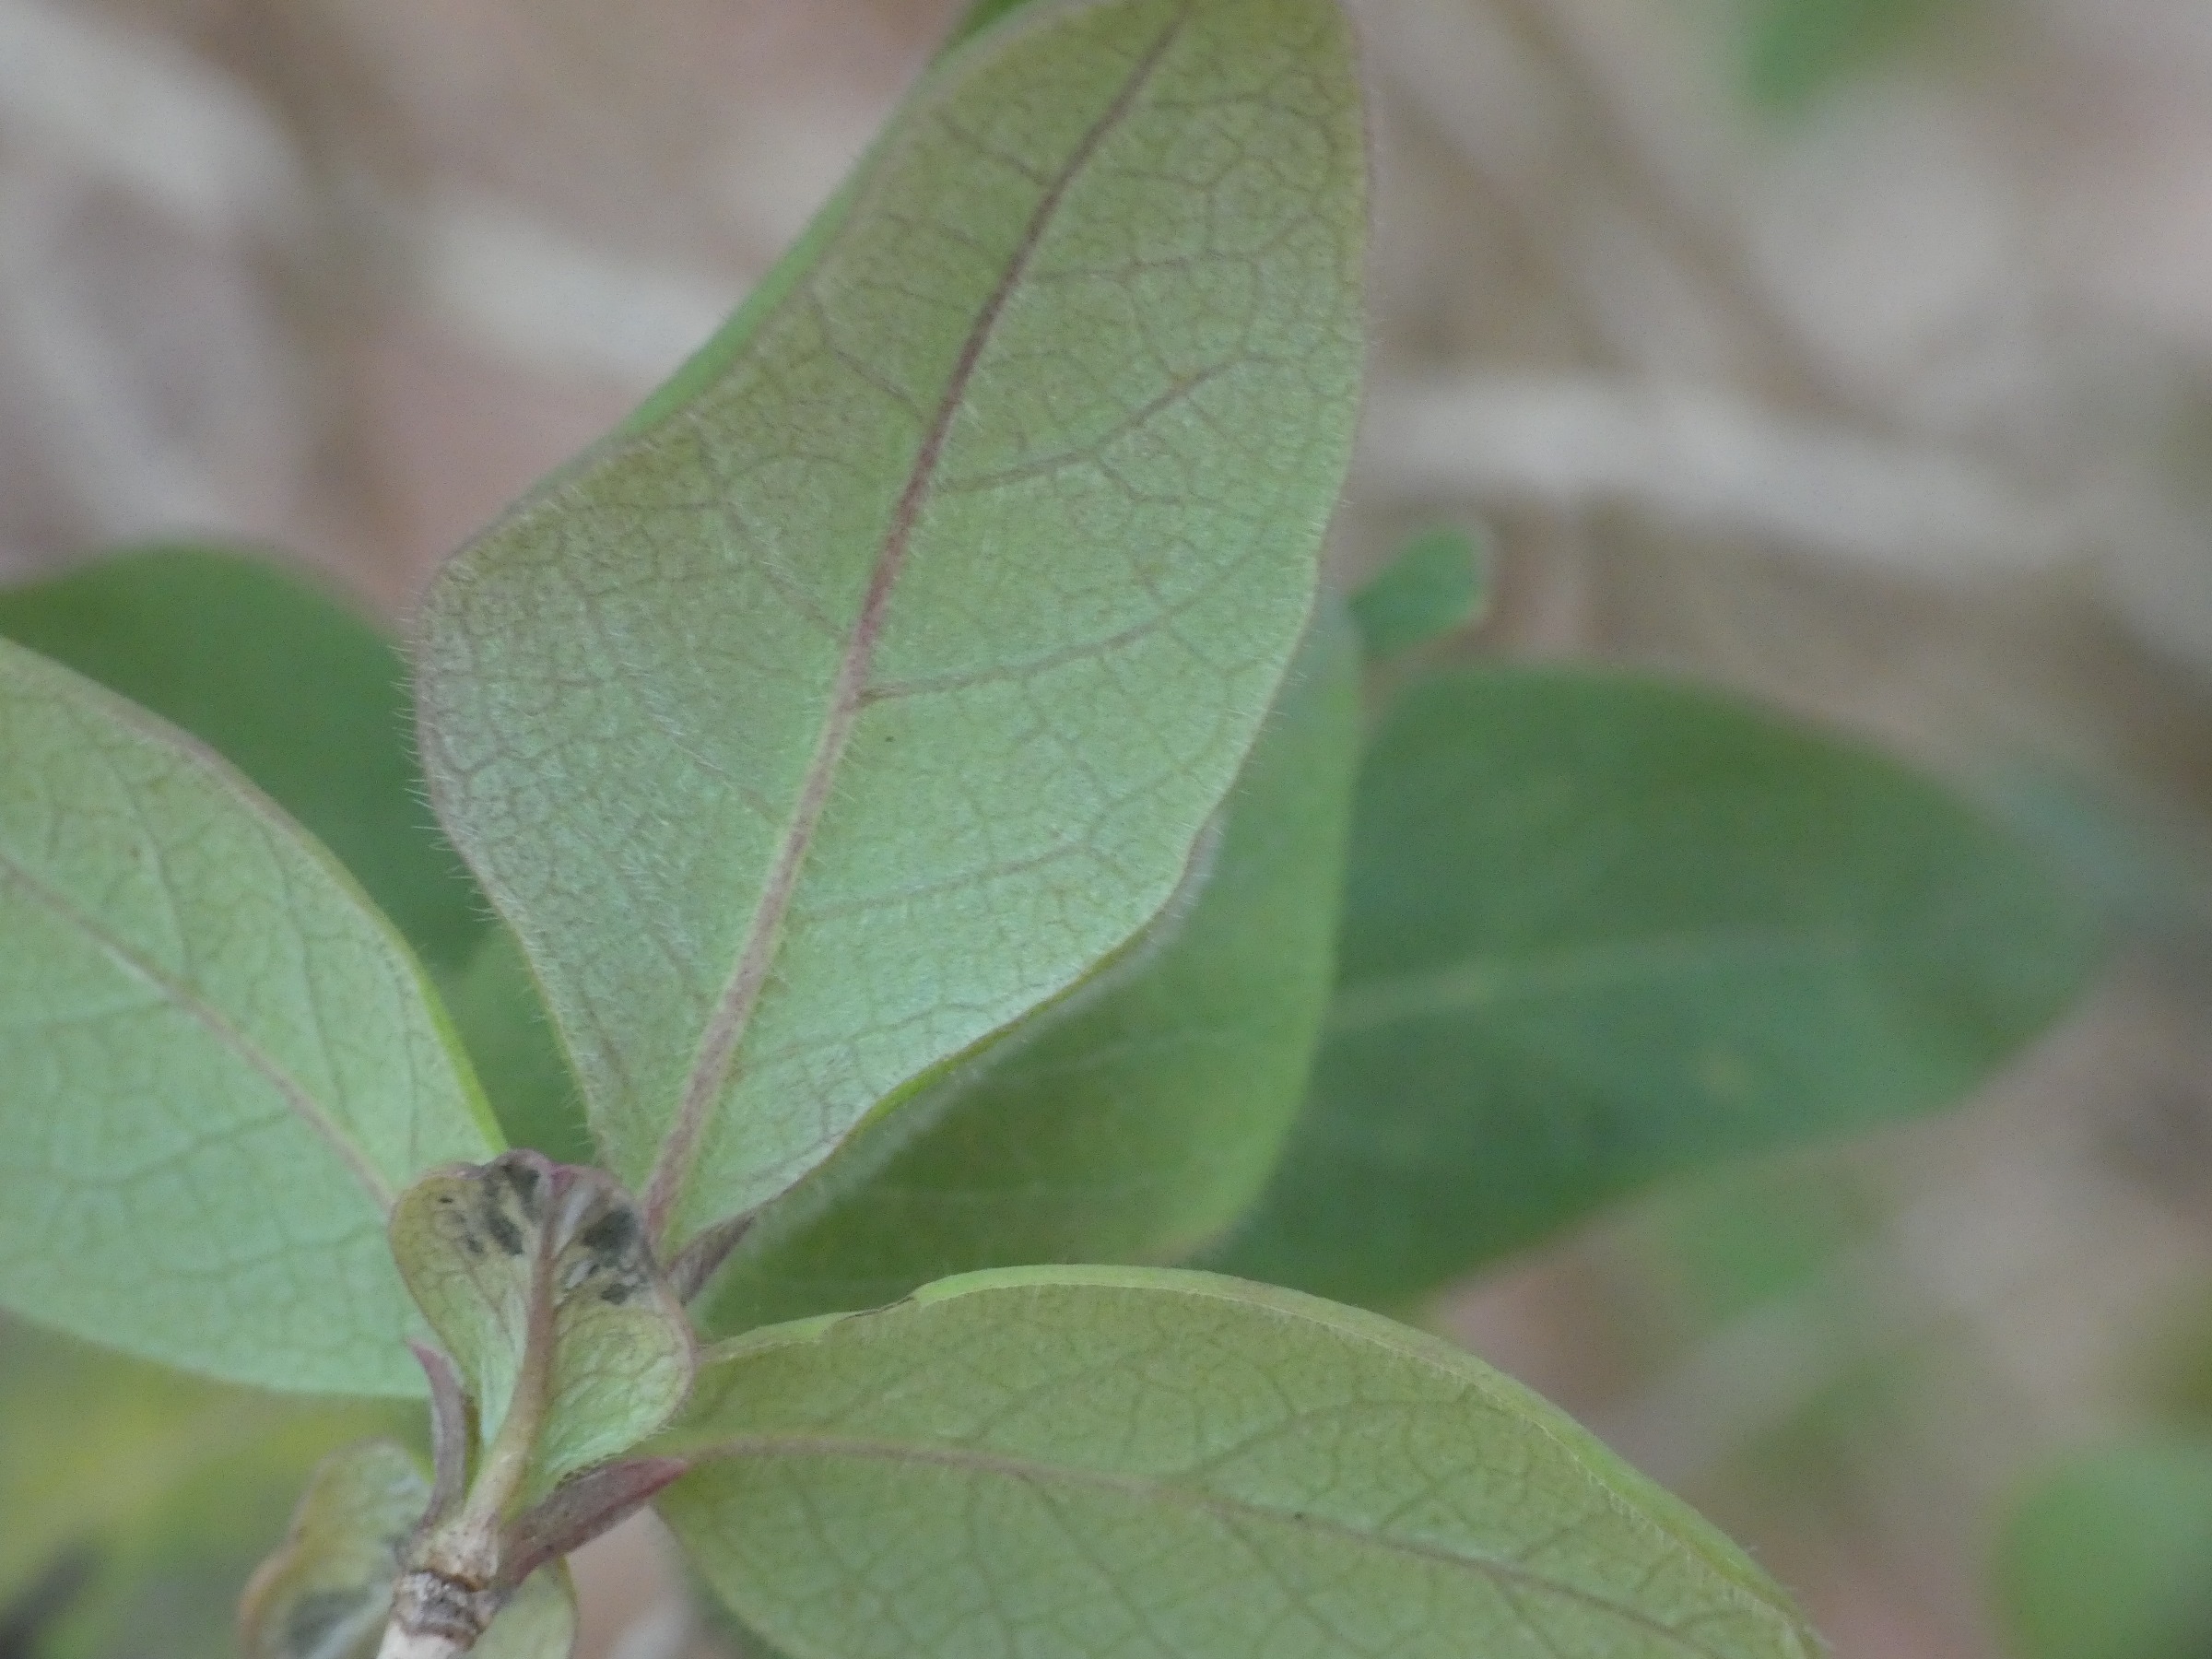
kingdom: Plantae
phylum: Tracheophyta
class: Magnoliopsida
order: Dipsacales
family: Caprifoliaceae
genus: Lonicera
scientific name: Lonicera periclymenum
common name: Almindelig gedeblad
